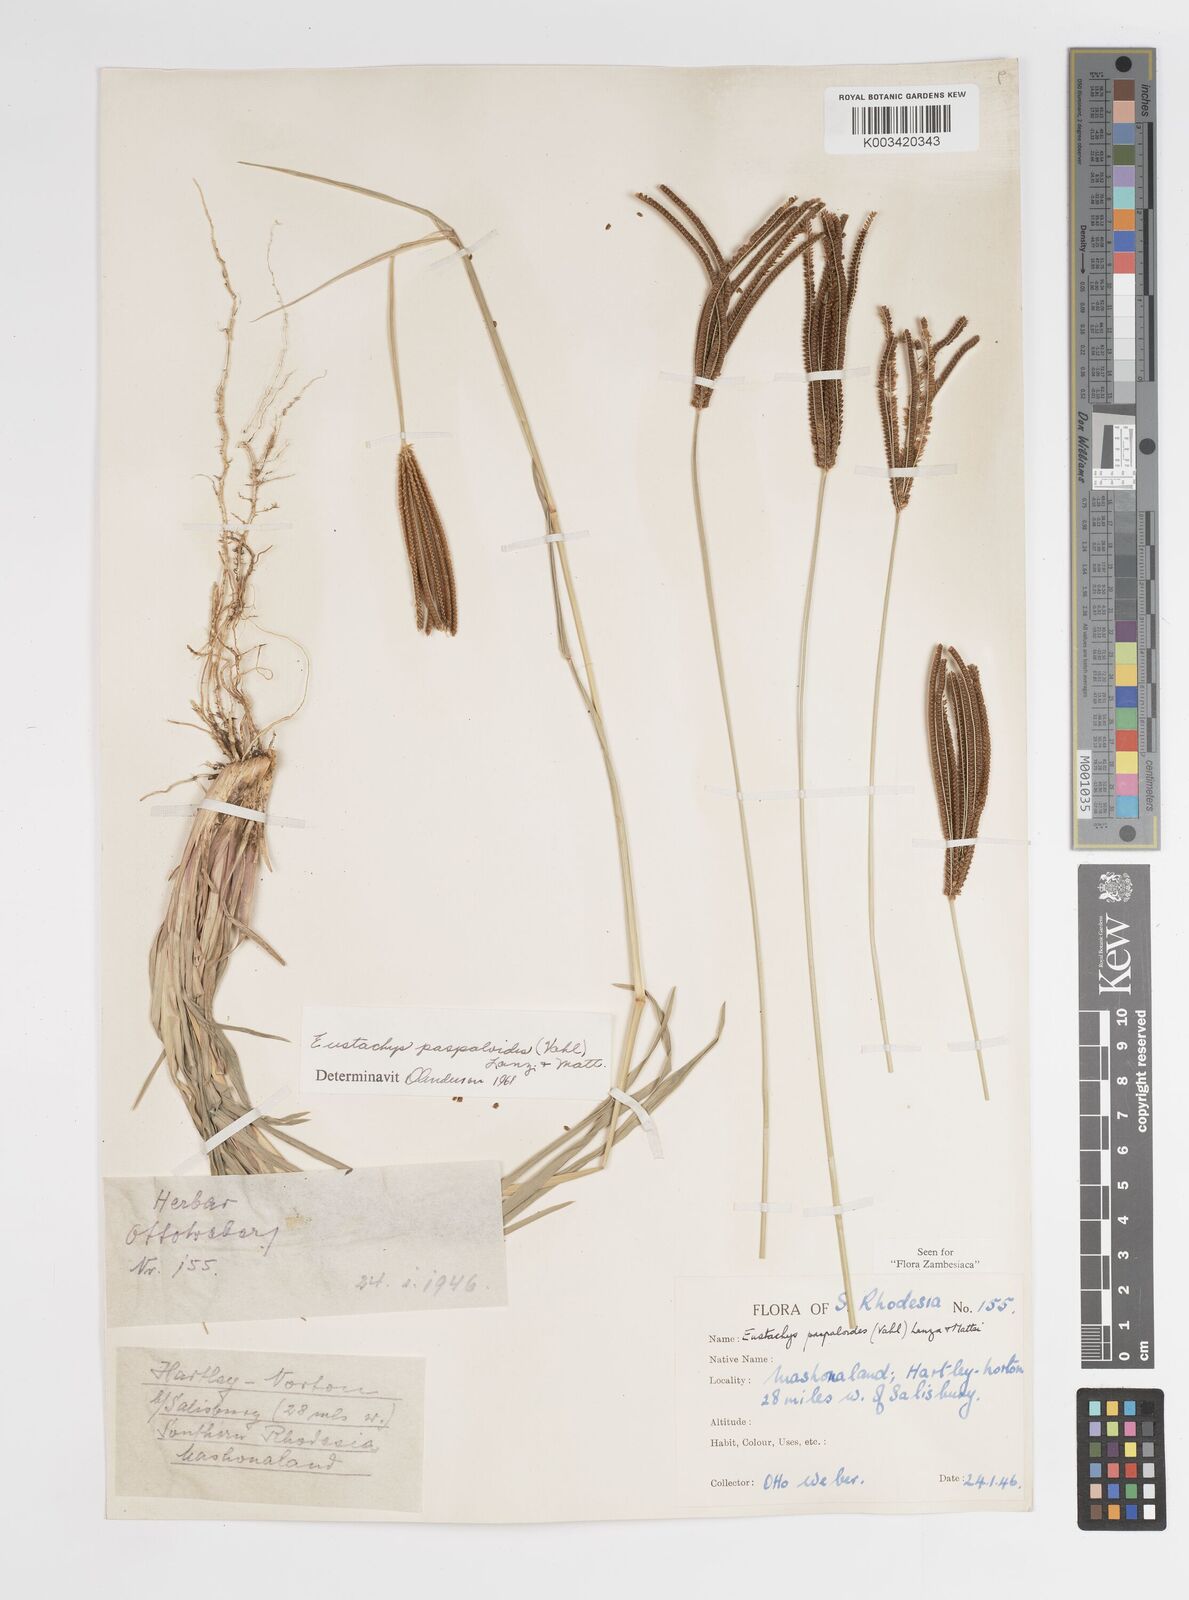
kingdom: Plantae
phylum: Tracheophyta
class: Liliopsida
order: Poales
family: Poaceae
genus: Eustachys
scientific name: Eustachys paspaloides
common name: Caribbean fingergrass
